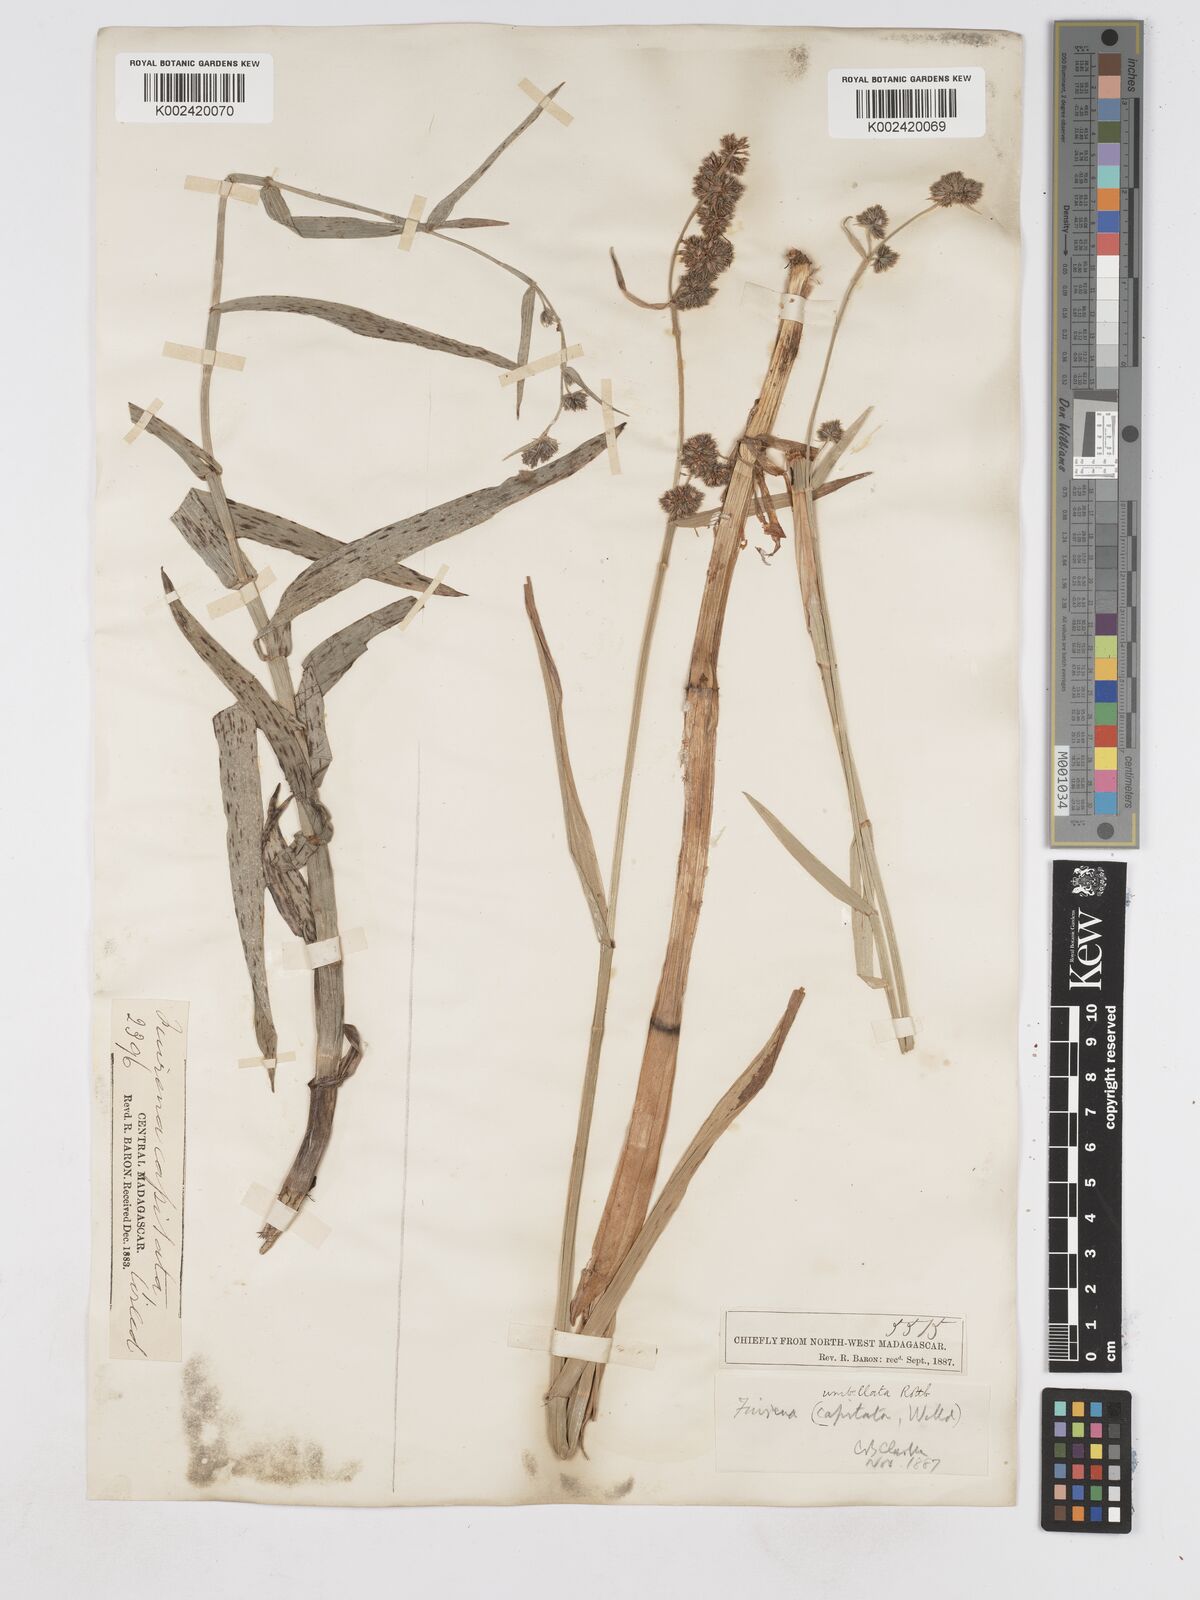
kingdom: Plantae
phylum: Tracheophyta
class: Liliopsida
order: Poales
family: Cyperaceae
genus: Fuirena
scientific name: Fuirena umbellata
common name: Yefen
